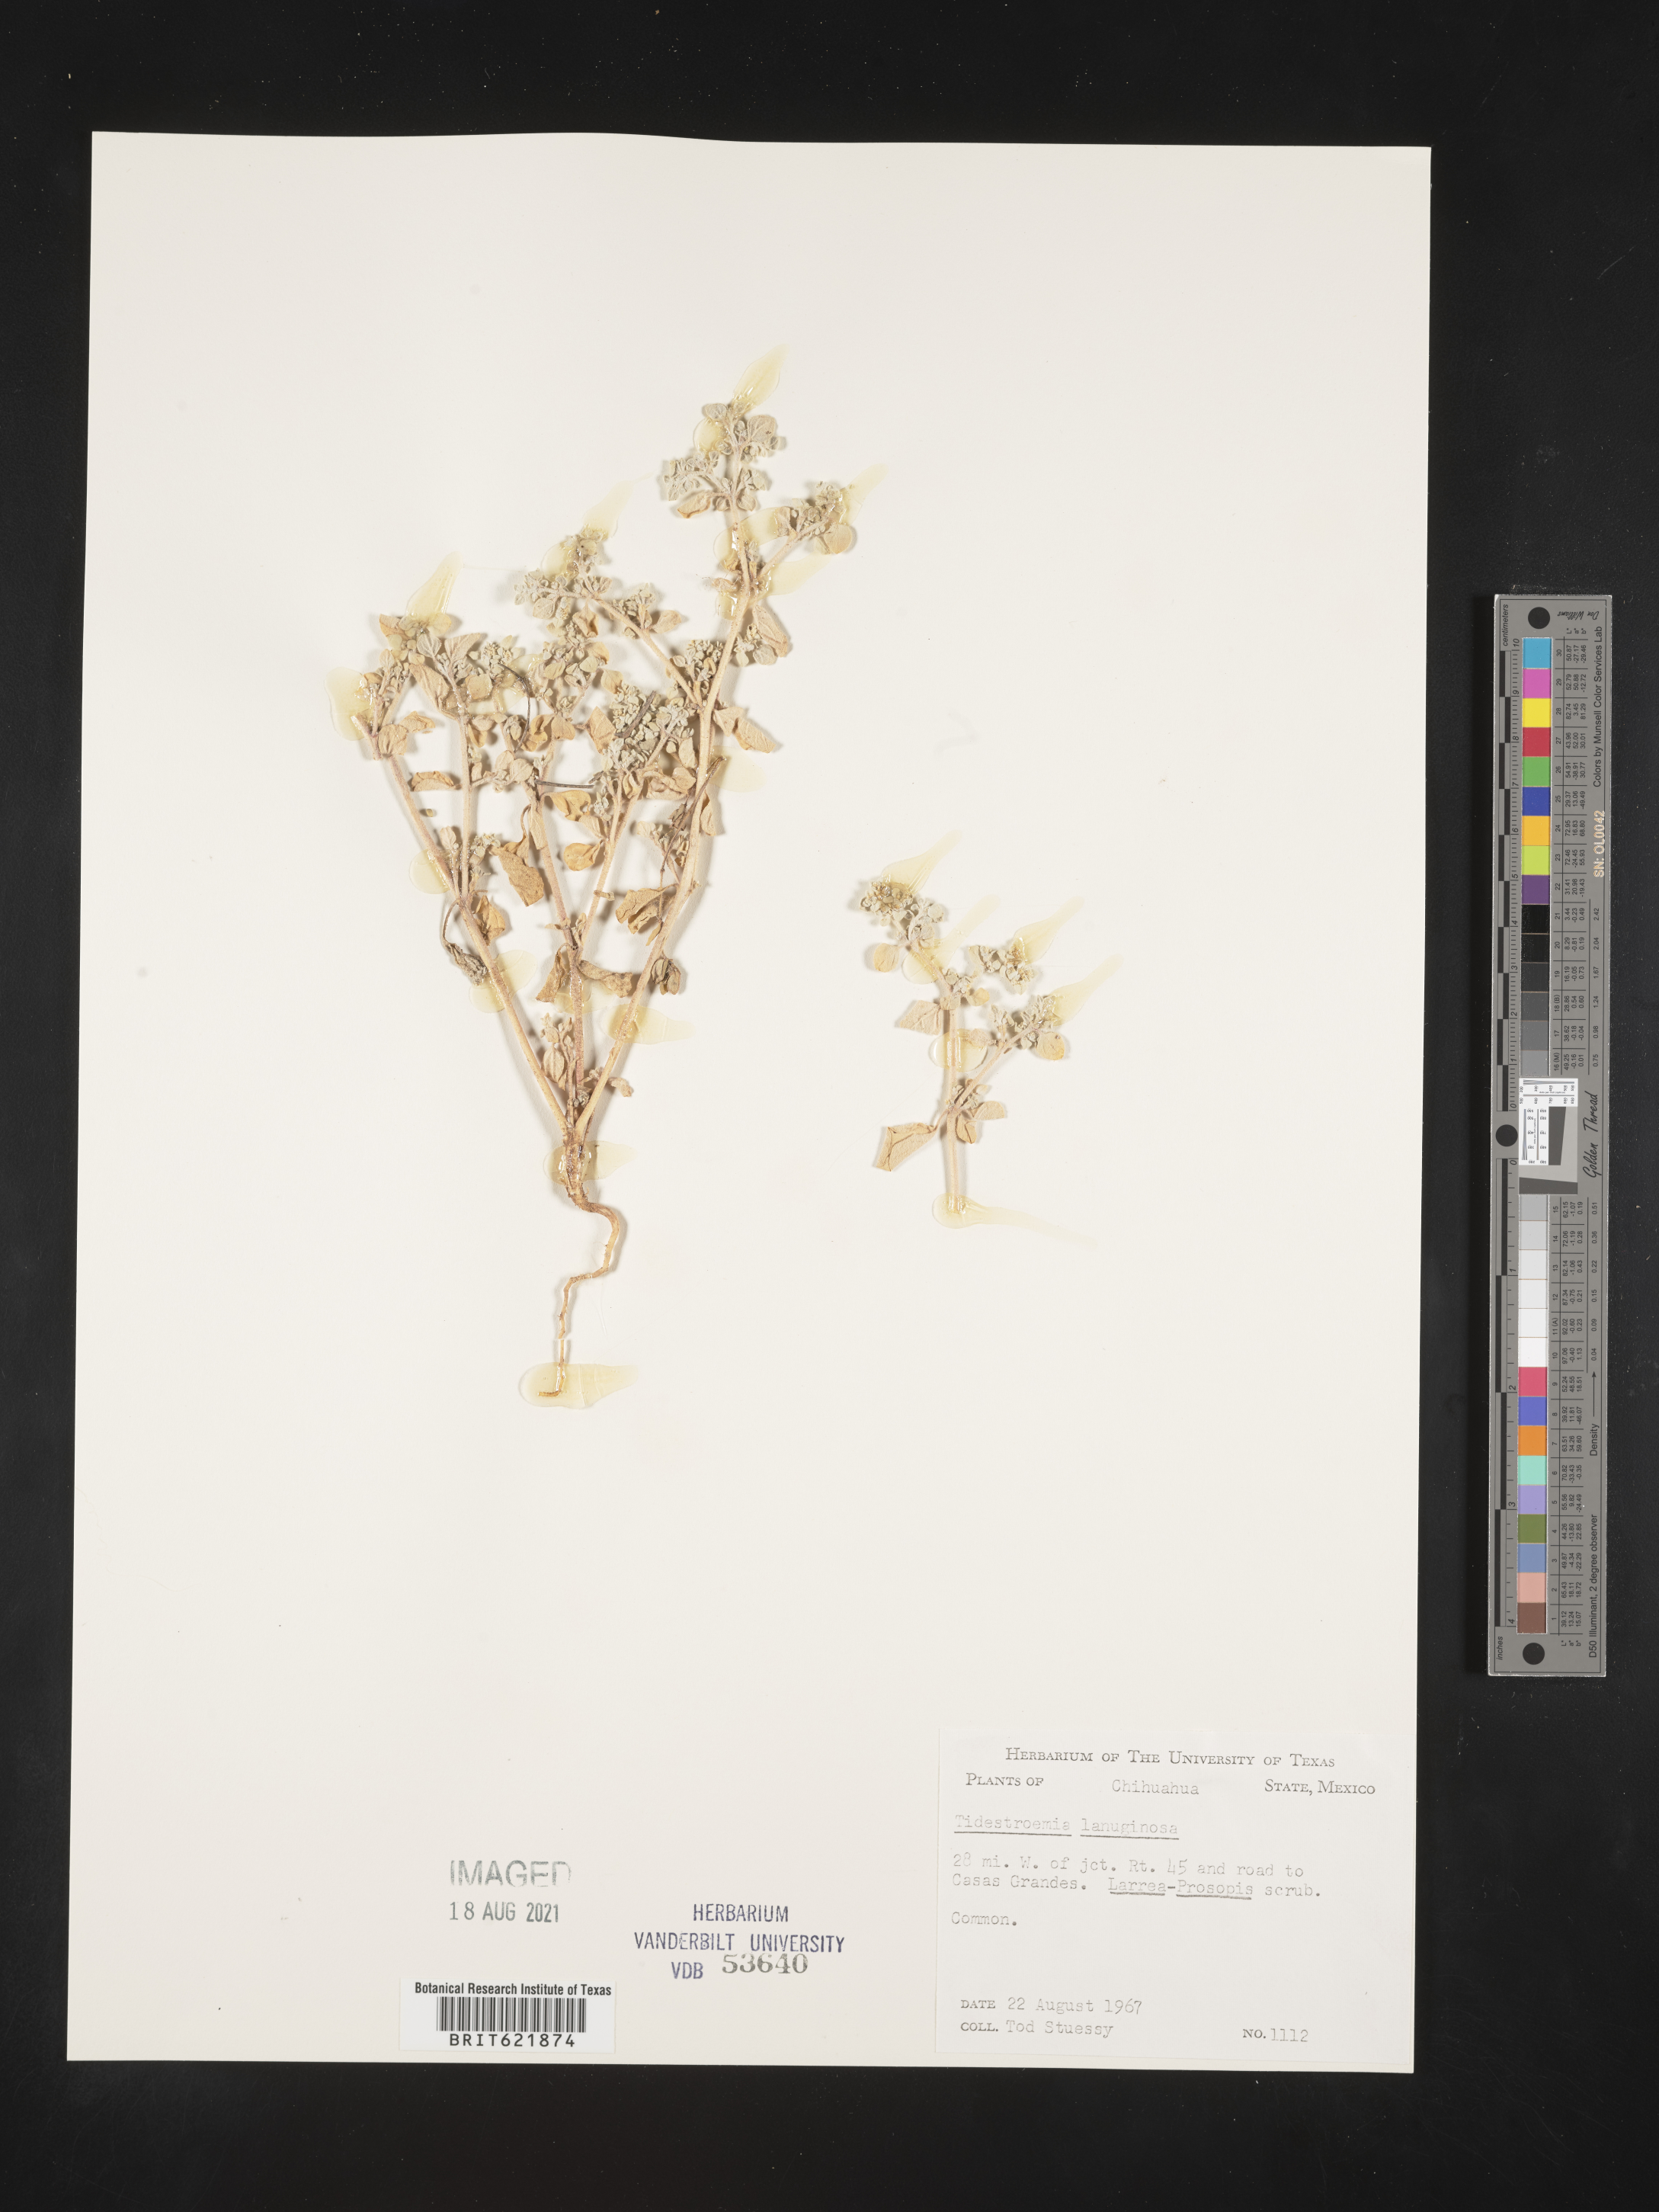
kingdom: Plantae
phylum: Tracheophyta
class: Magnoliopsida
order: Caryophyllales
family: Amaranthaceae
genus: Tidestromia
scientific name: Tidestromia
